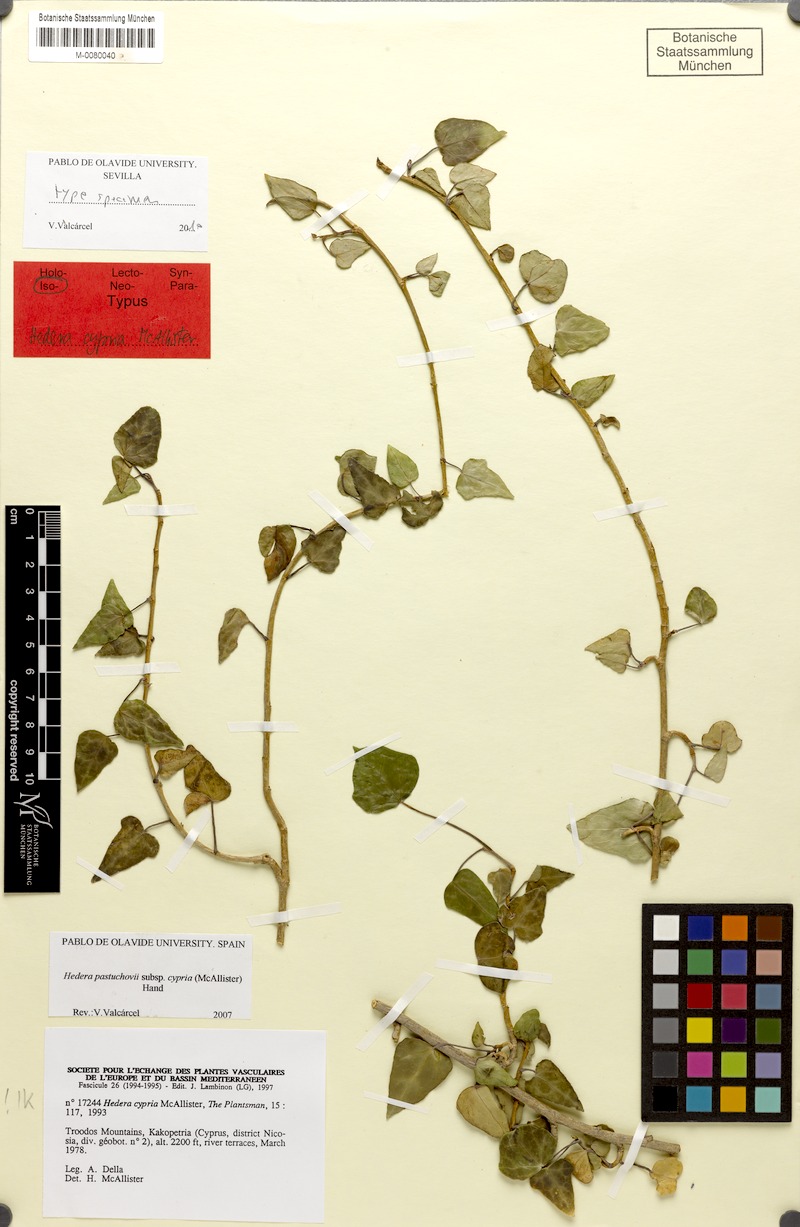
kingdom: Plantae
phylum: Tracheophyta
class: Magnoliopsida
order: Apiales
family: Araliaceae
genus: Hedera
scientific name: Hedera pastuchovii
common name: Persian ivy
